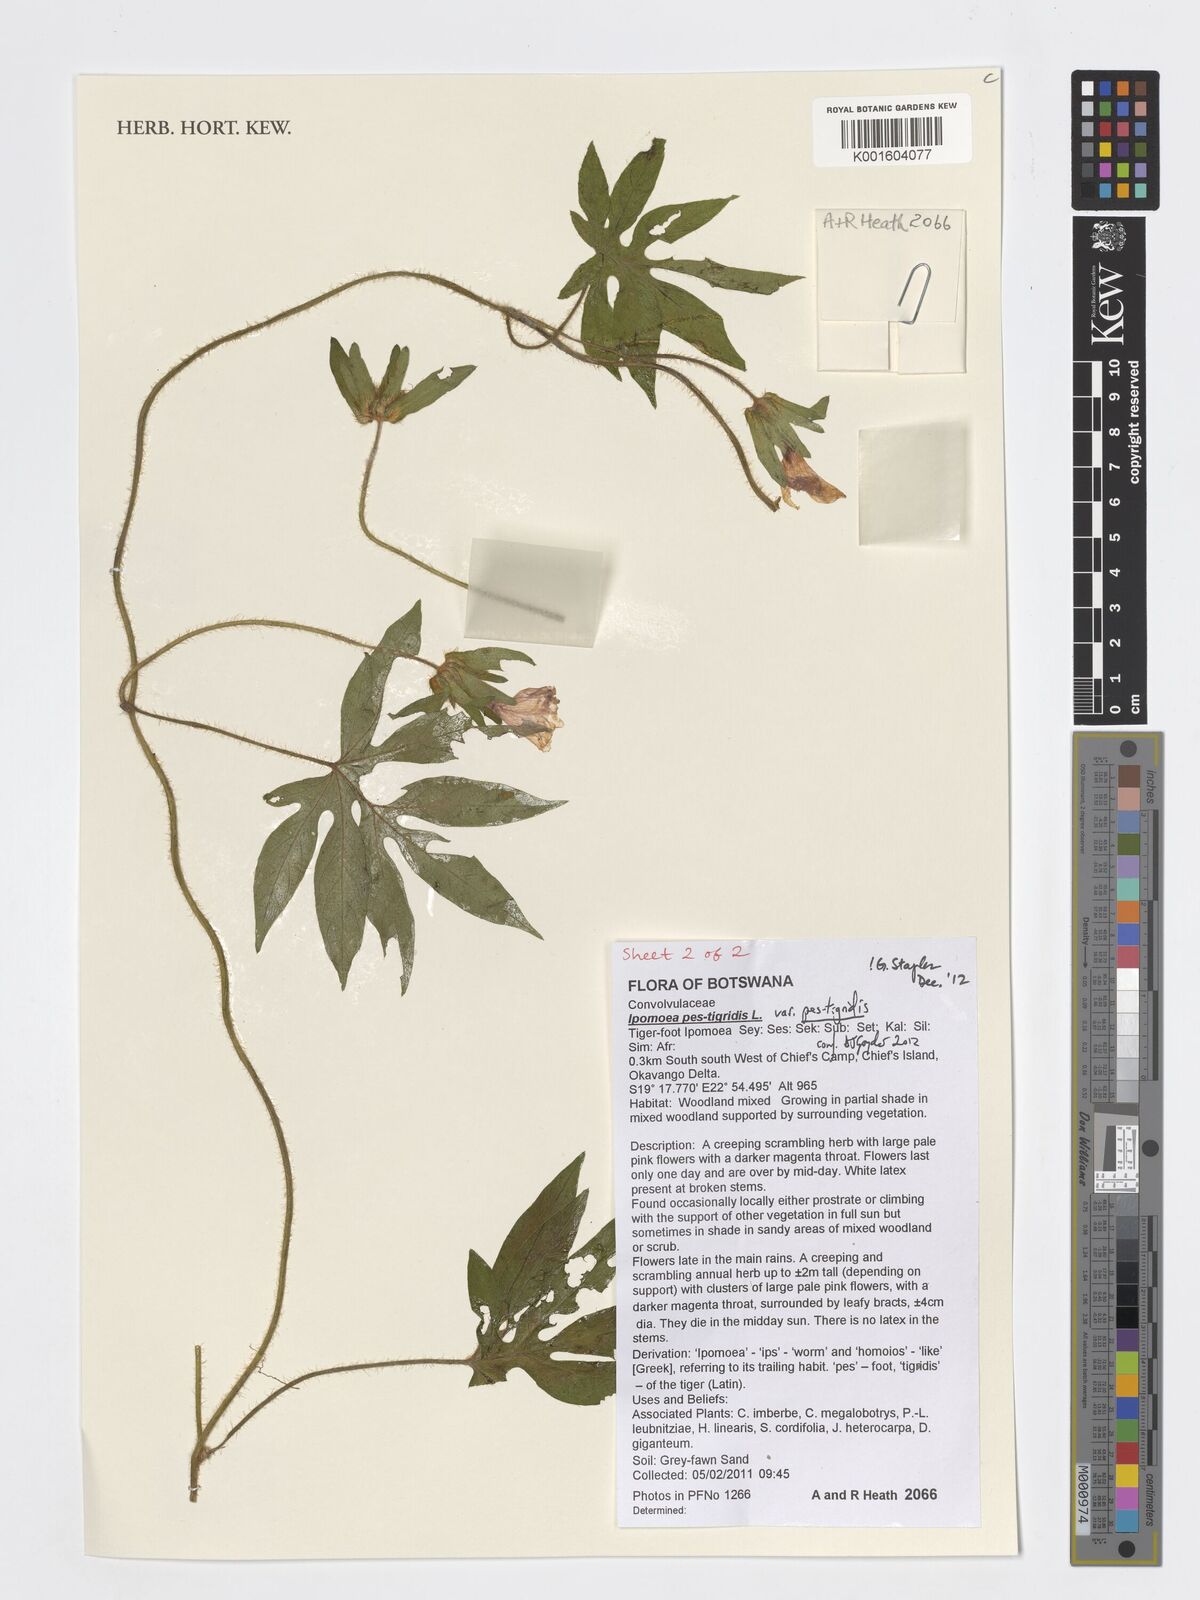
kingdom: Plantae
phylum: Tracheophyta
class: Magnoliopsida
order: Solanales
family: Convolvulaceae
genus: Ipomoea
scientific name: Ipomoea pes-tigridis
